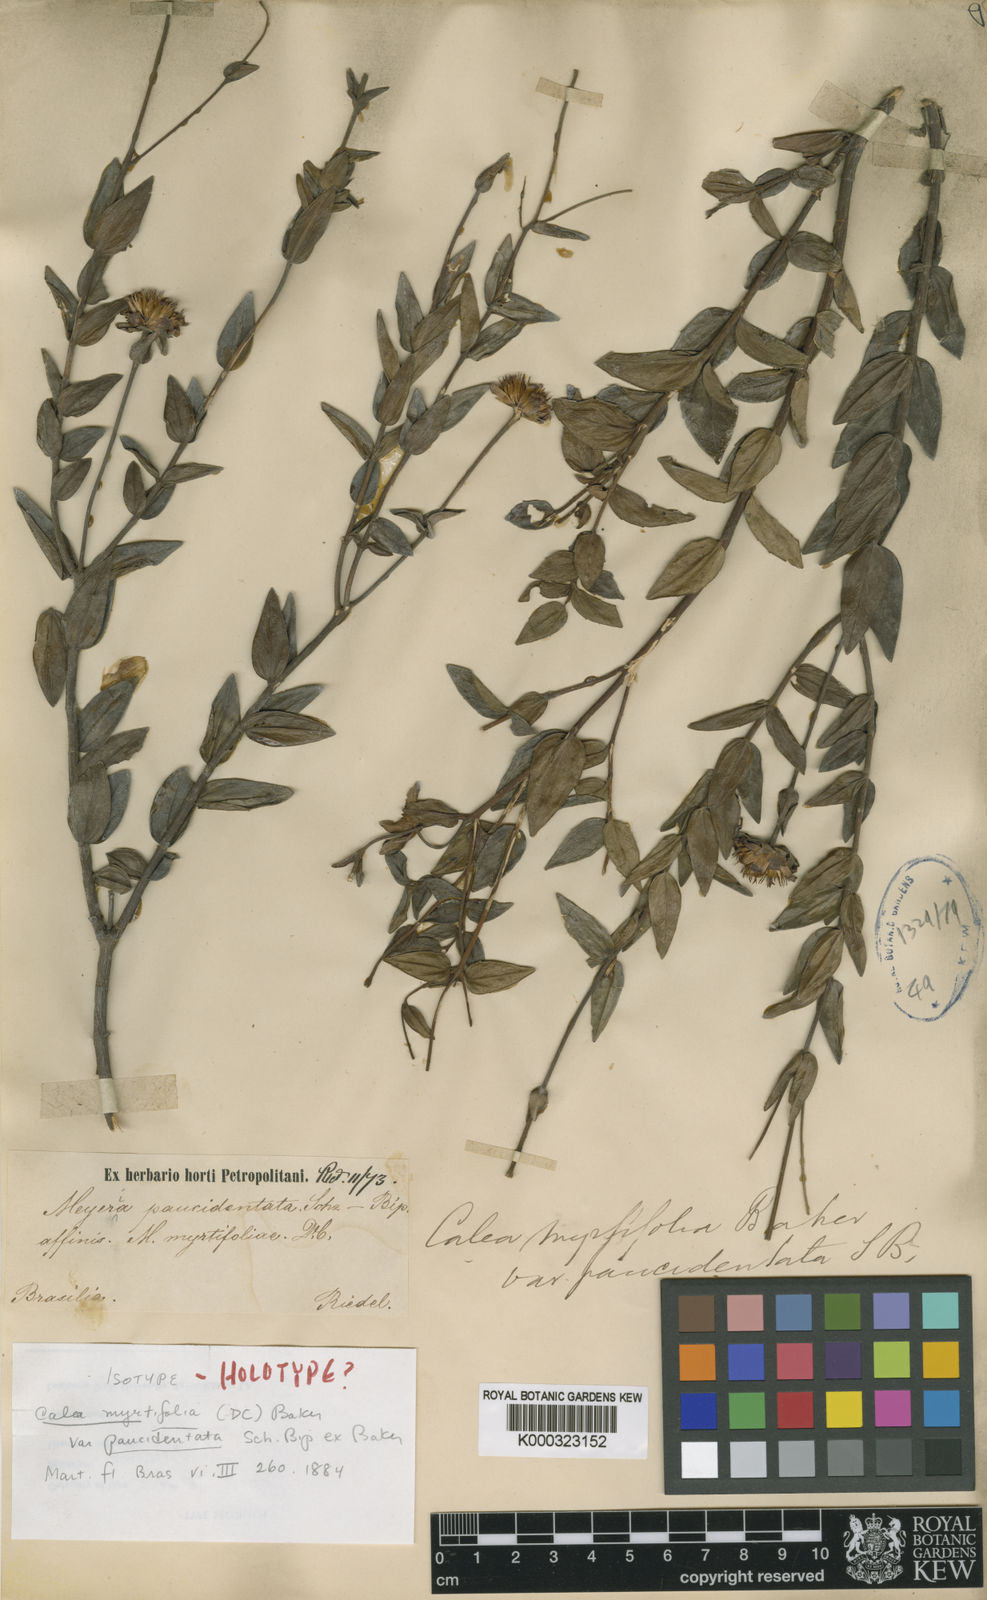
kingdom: Plantae
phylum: Tracheophyta
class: Magnoliopsida
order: Asterales
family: Asteraceae
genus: Calea
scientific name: Calea myrtifolia
